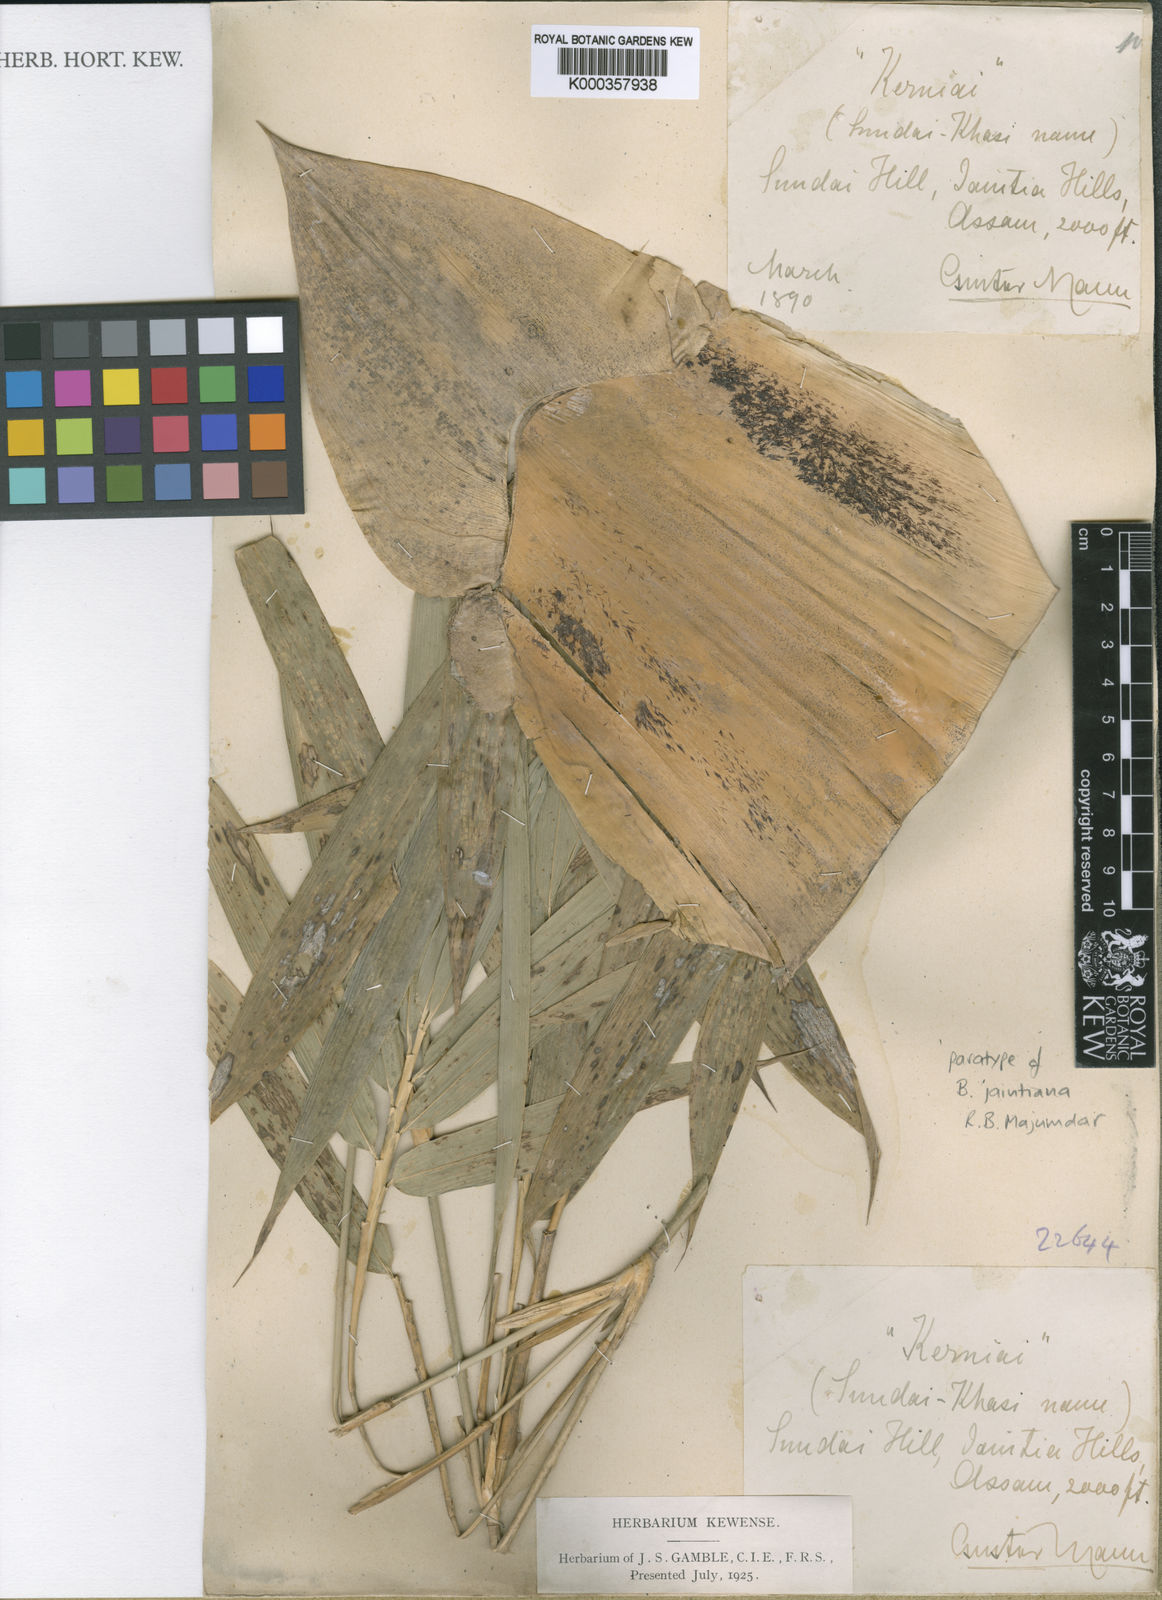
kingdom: Plantae
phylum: Tracheophyta
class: Liliopsida
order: Poales
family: Poaceae
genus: Bambusa
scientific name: Bambusa jaintiana
